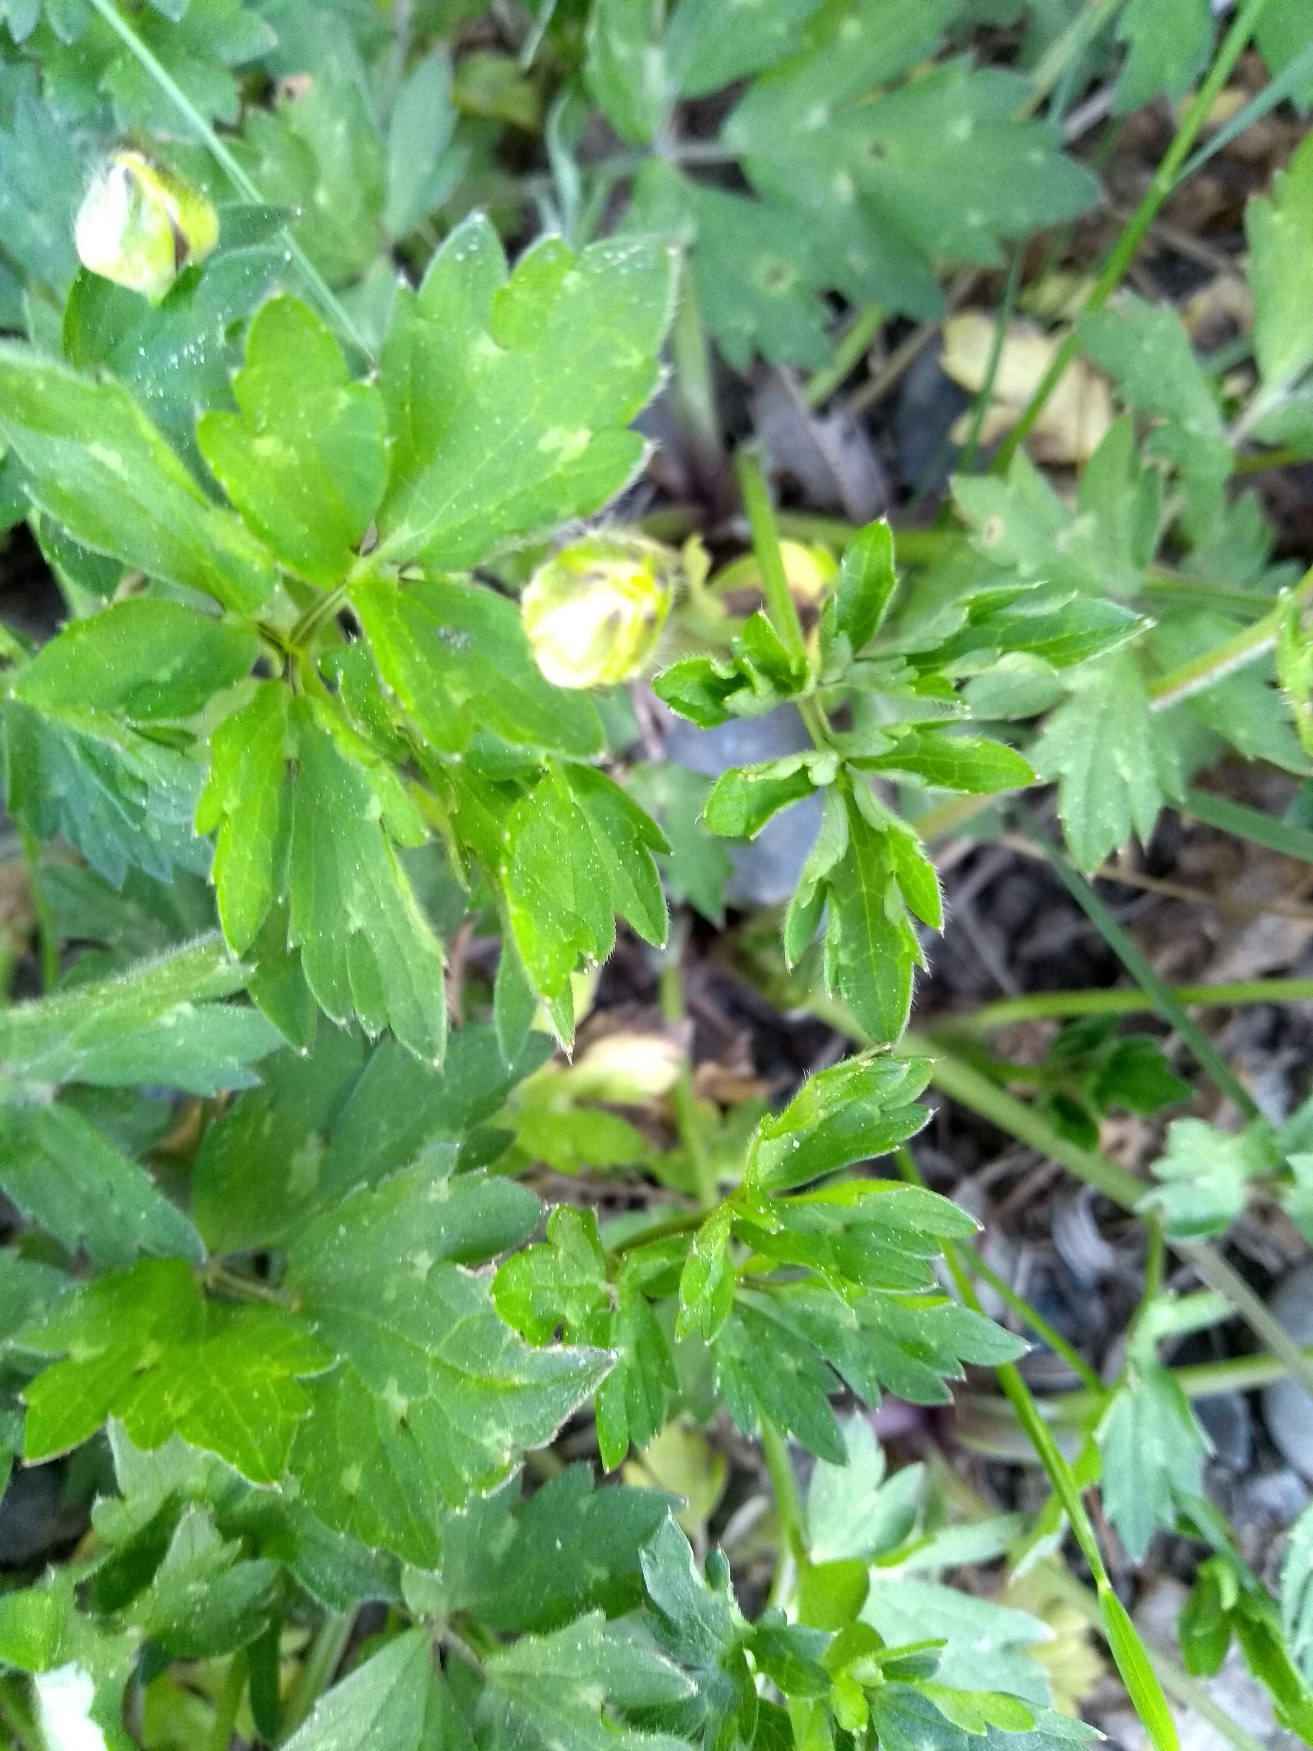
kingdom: Plantae
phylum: Tracheophyta
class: Magnoliopsida
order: Ranunculales
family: Ranunculaceae
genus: Ranunculus
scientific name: Ranunculus repens
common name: Lav ranunkel
